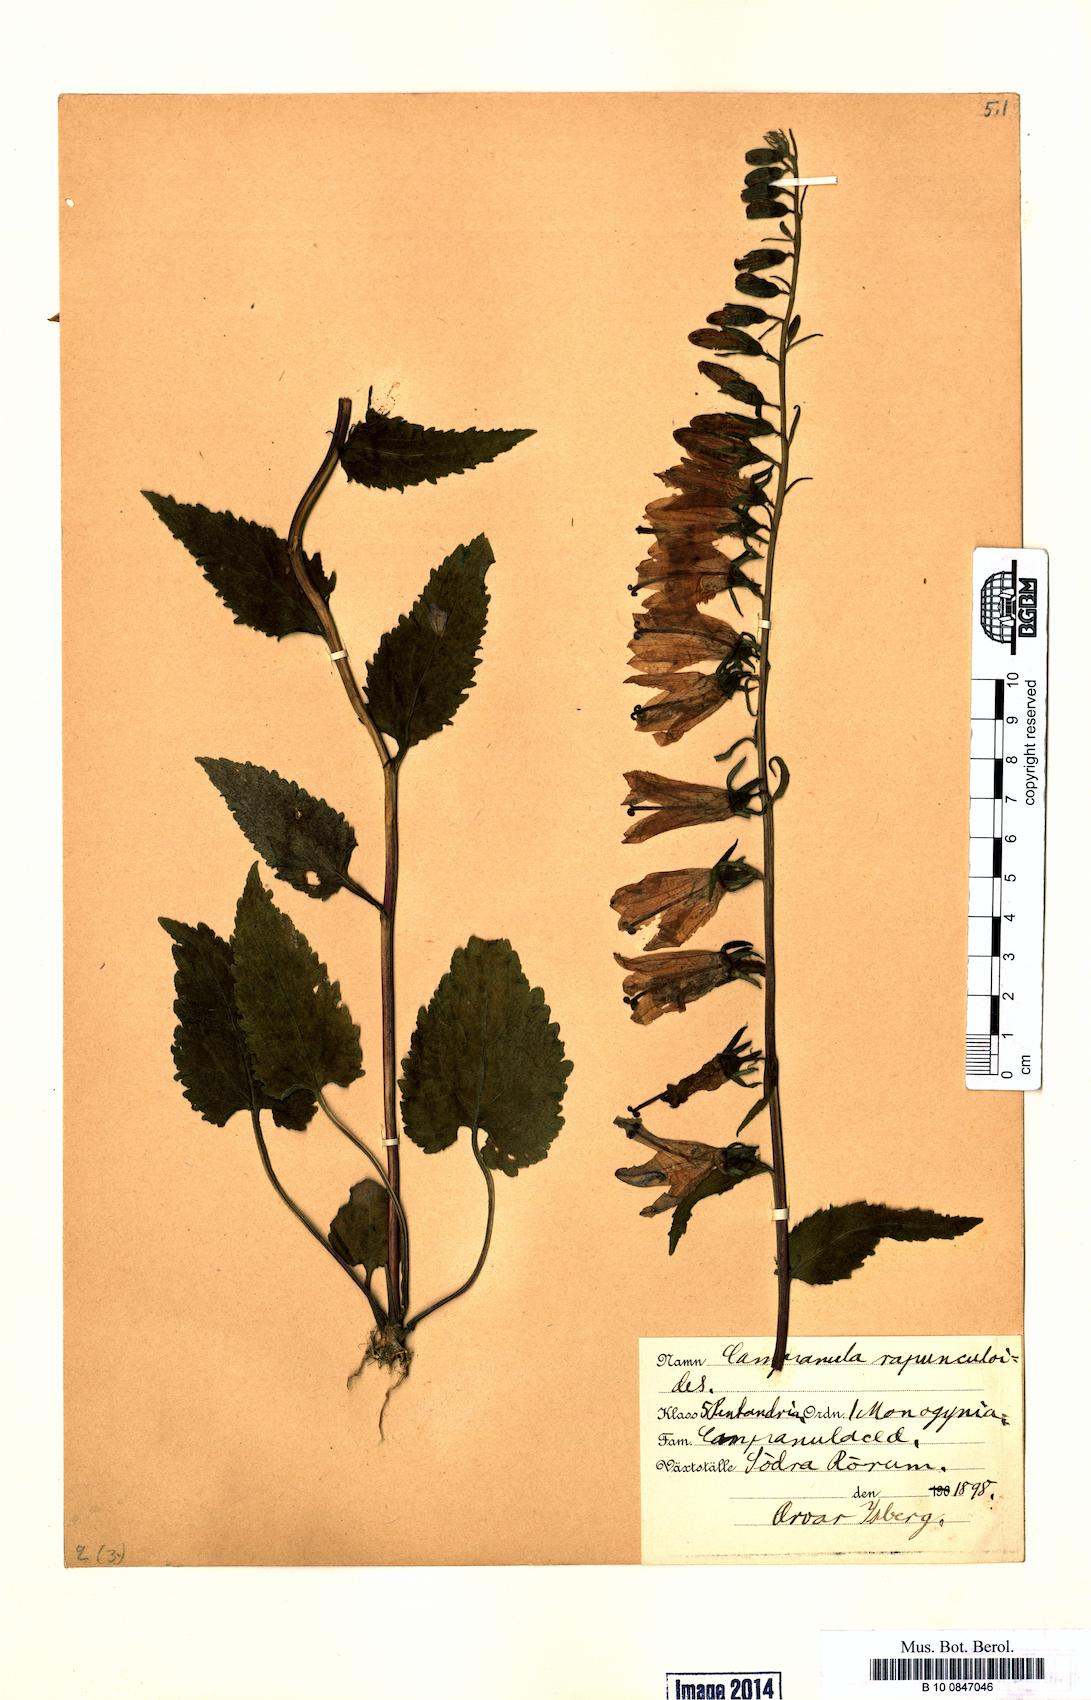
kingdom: Plantae
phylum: Tracheophyta
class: Magnoliopsida
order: Asterales
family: Campanulaceae
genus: Campanula
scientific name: Campanula rapunculoides
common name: Creeping bellflower
